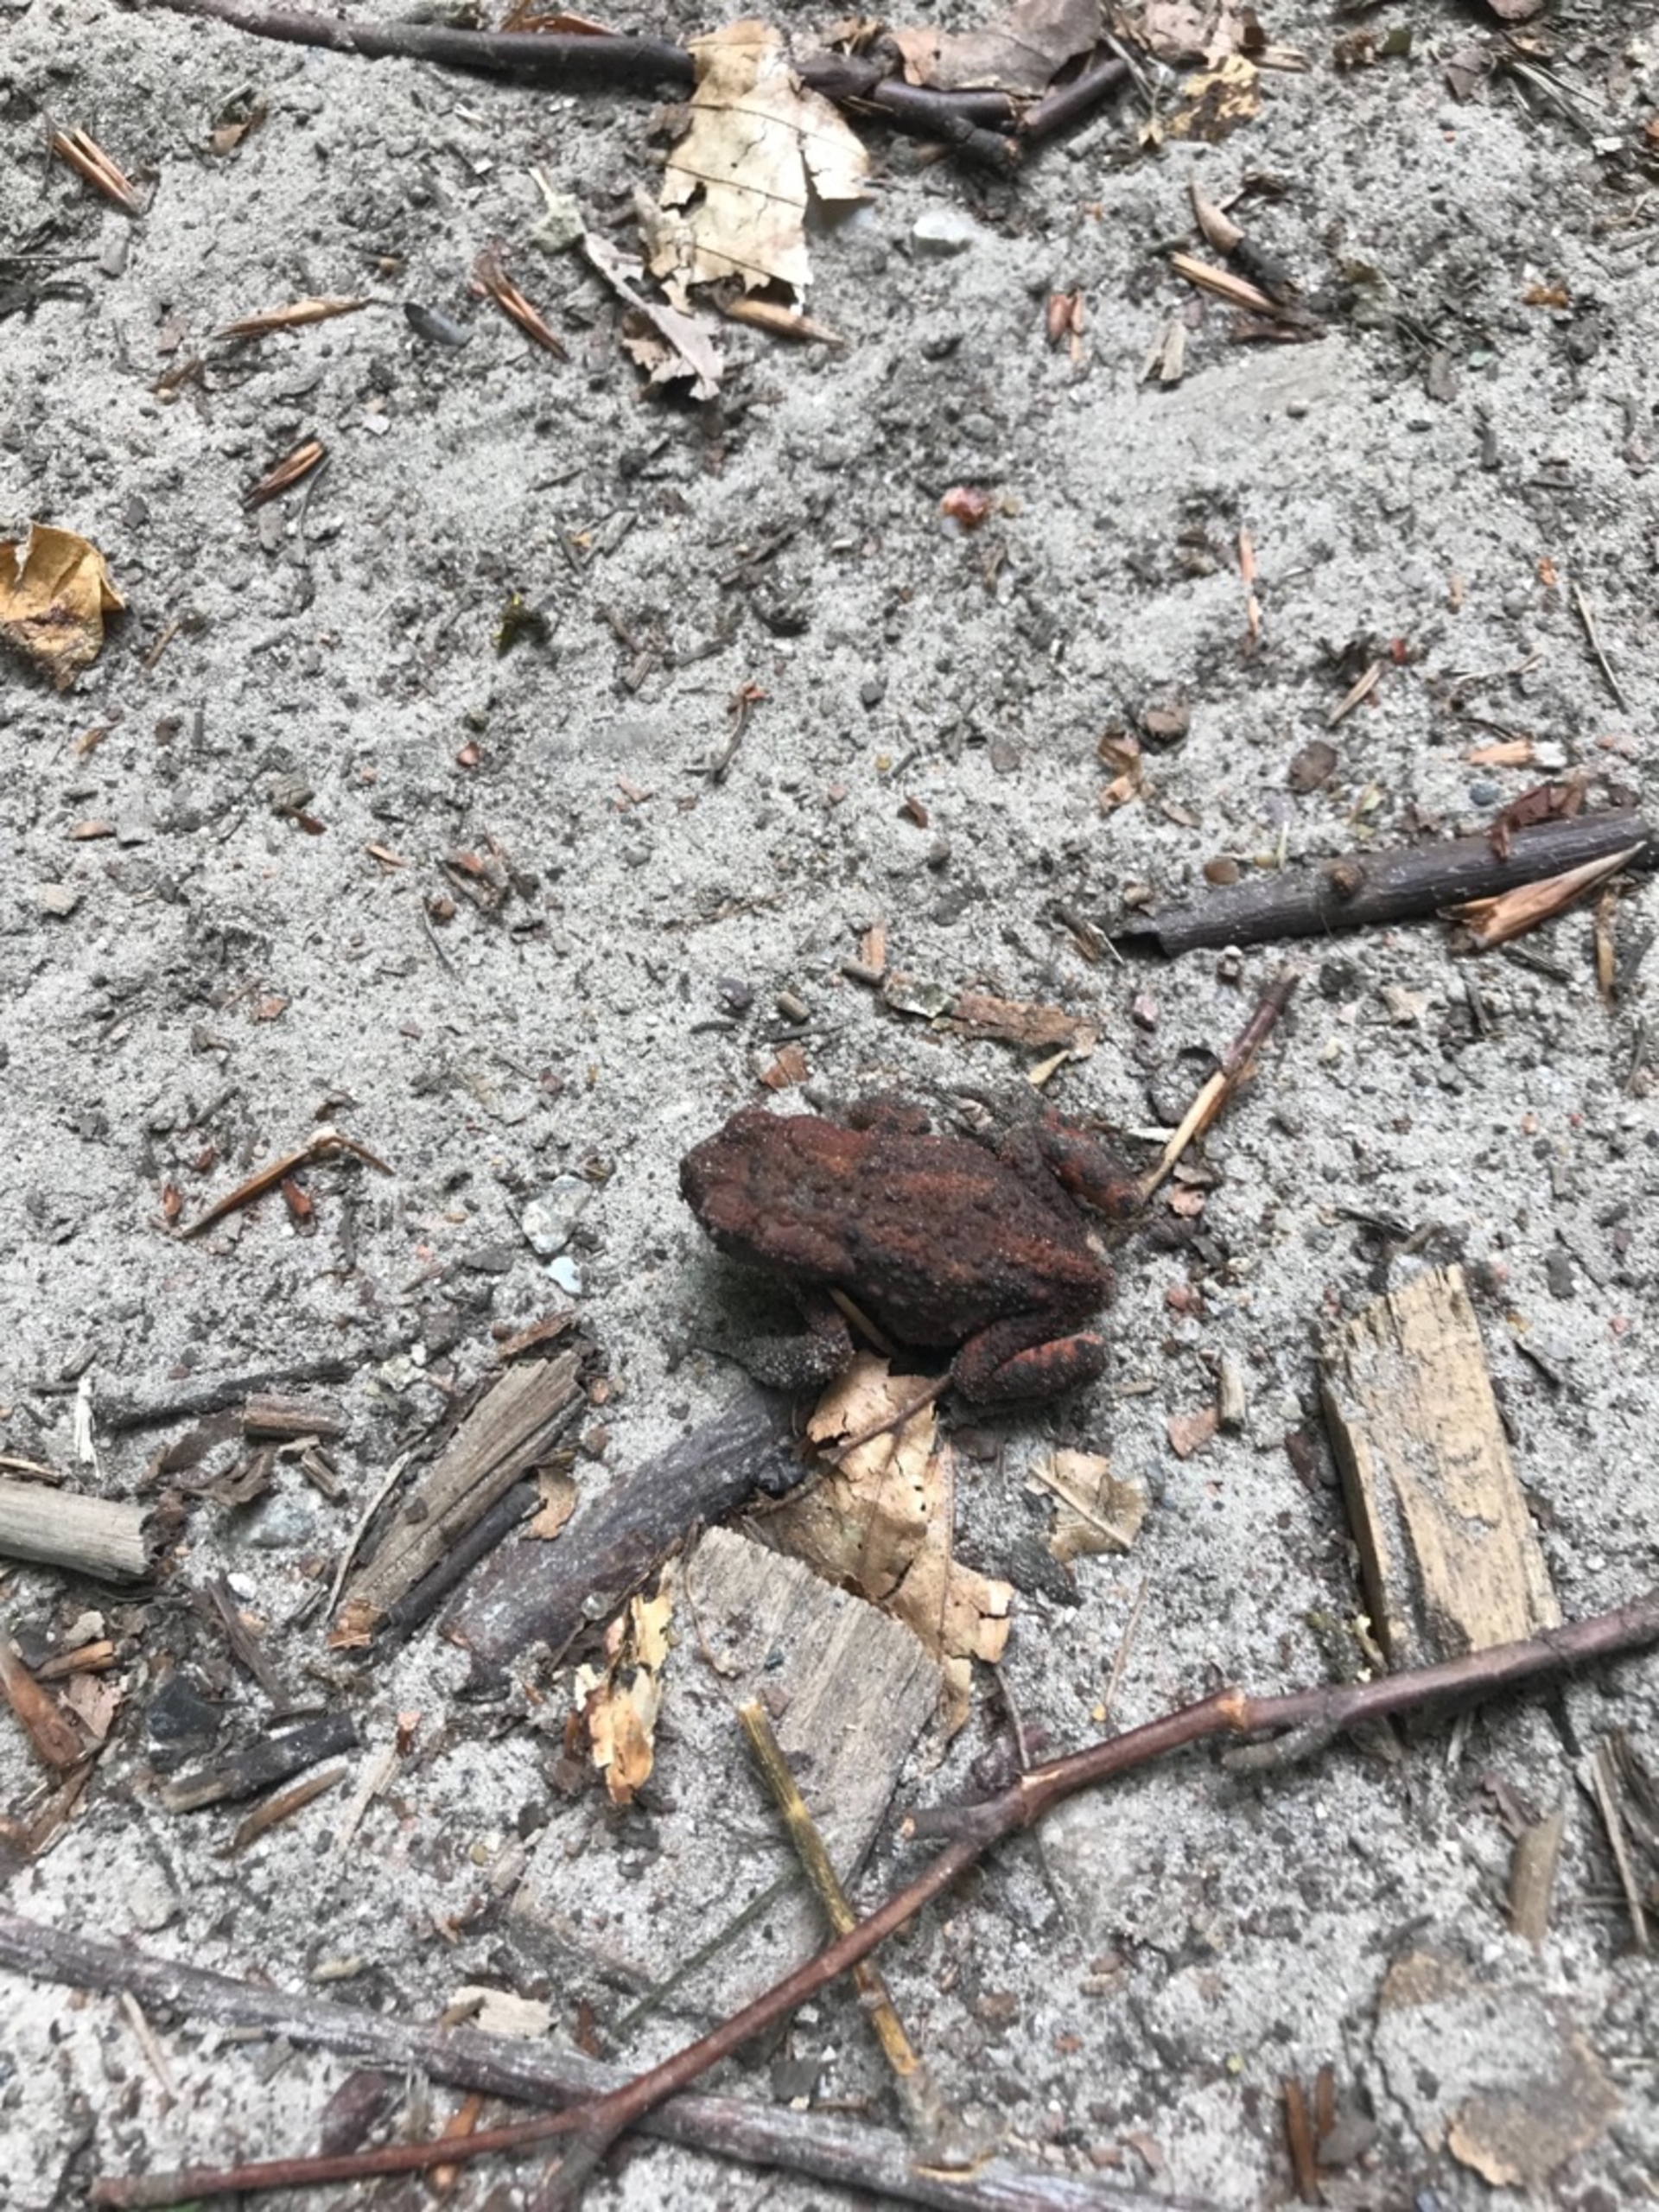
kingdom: Animalia
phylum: Chordata
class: Amphibia
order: Anura
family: Bufonidae
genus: Bufo
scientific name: Bufo bufo
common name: Skrubtudse
